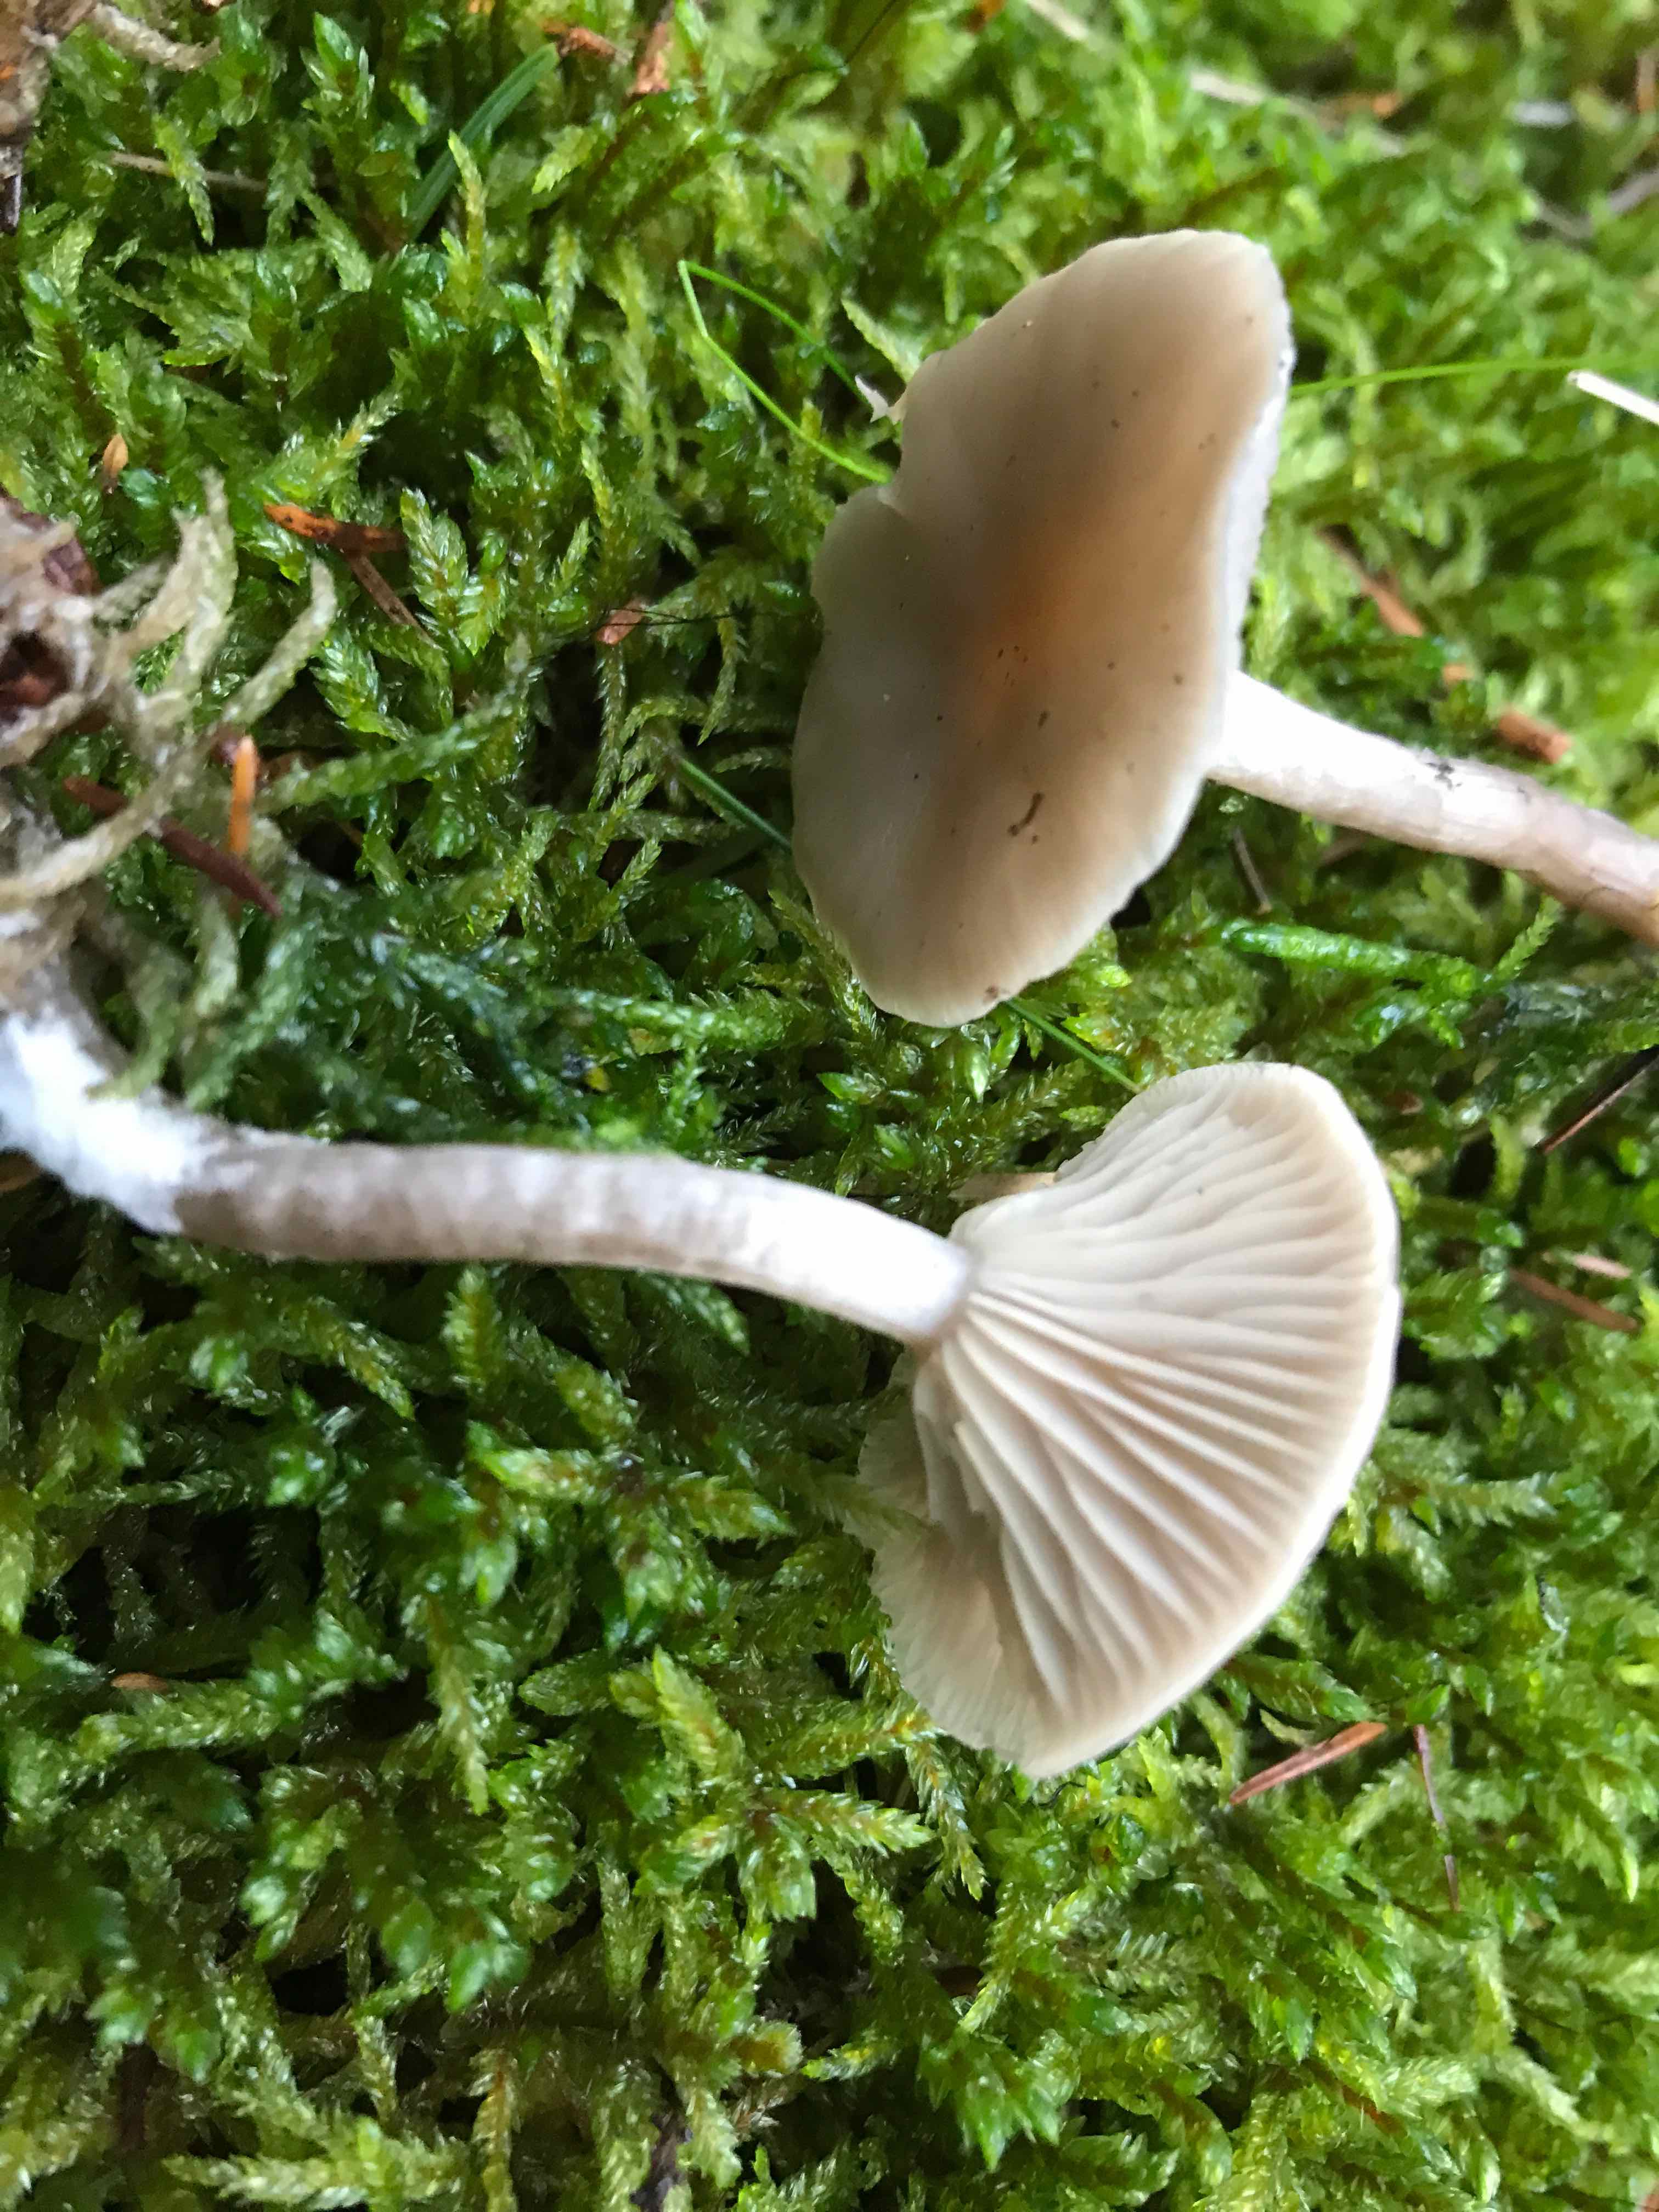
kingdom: Fungi
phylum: Basidiomycota
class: Agaricomycetes
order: Agaricales
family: Tricholomataceae
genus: Clitocybe
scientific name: Clitocybe metachroa
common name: grå tragthat
